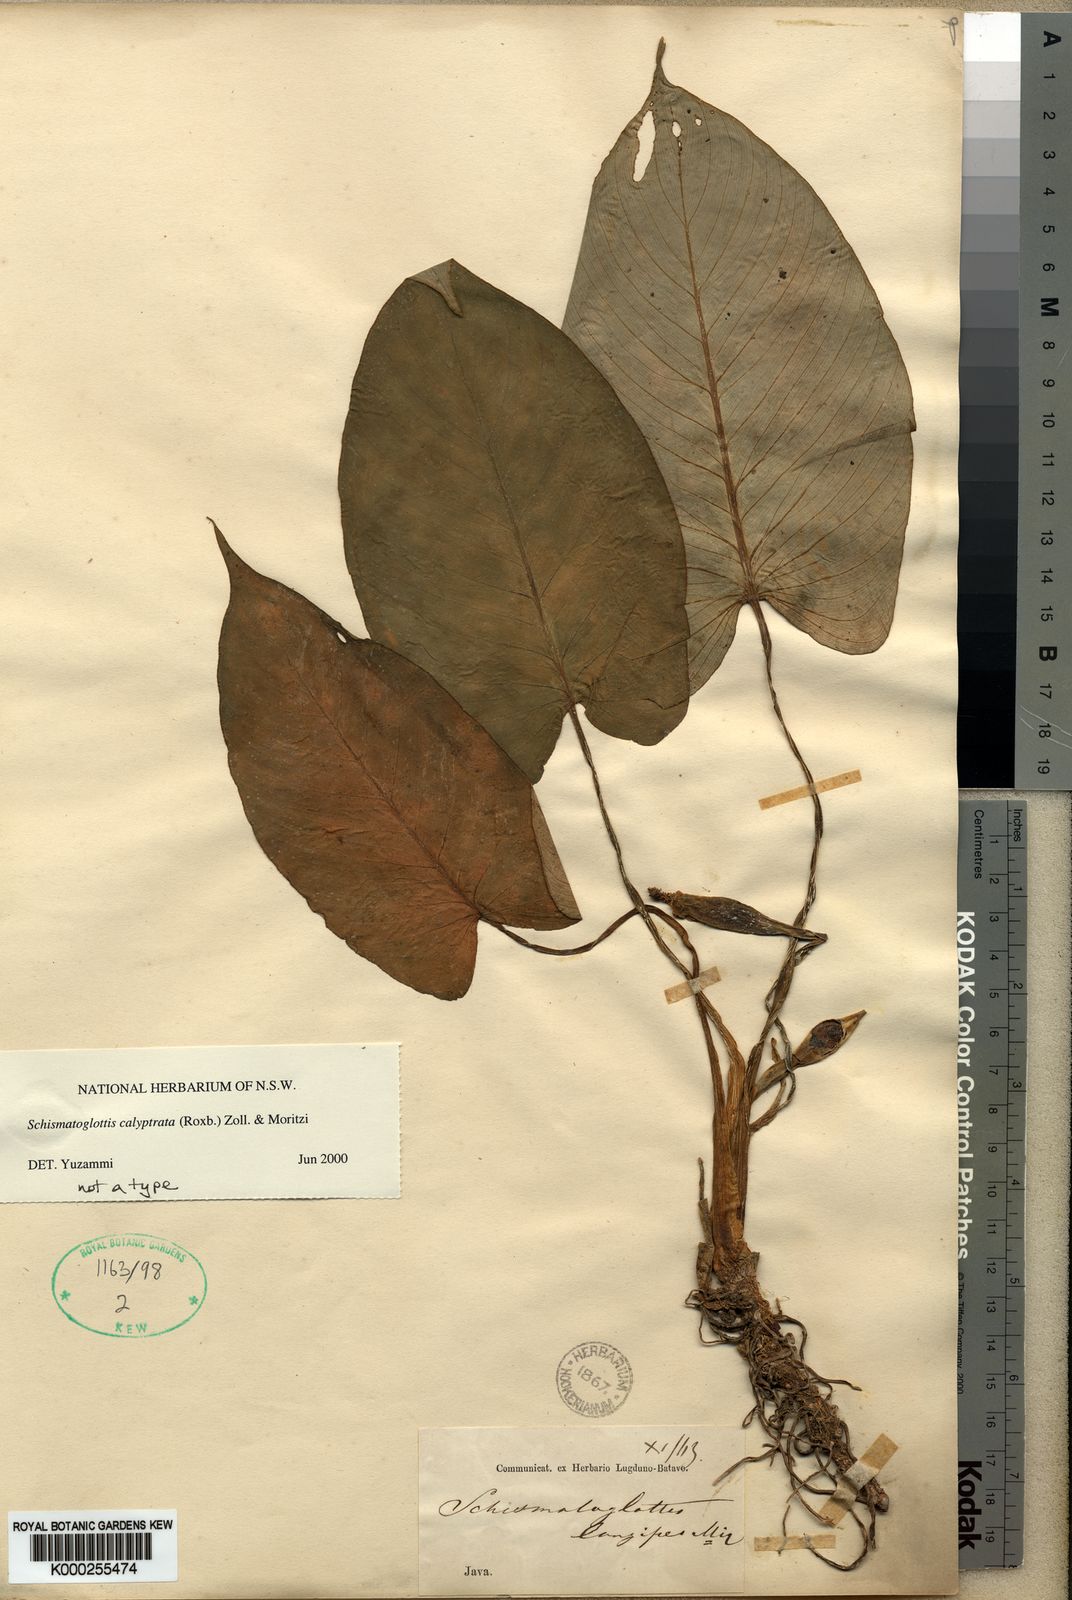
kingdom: Plantae
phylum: Tracheophyta
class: Liliopsida
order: Alismatales
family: Araceae
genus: Schismatoglottis
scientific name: Schismatoglottis calyptrata
